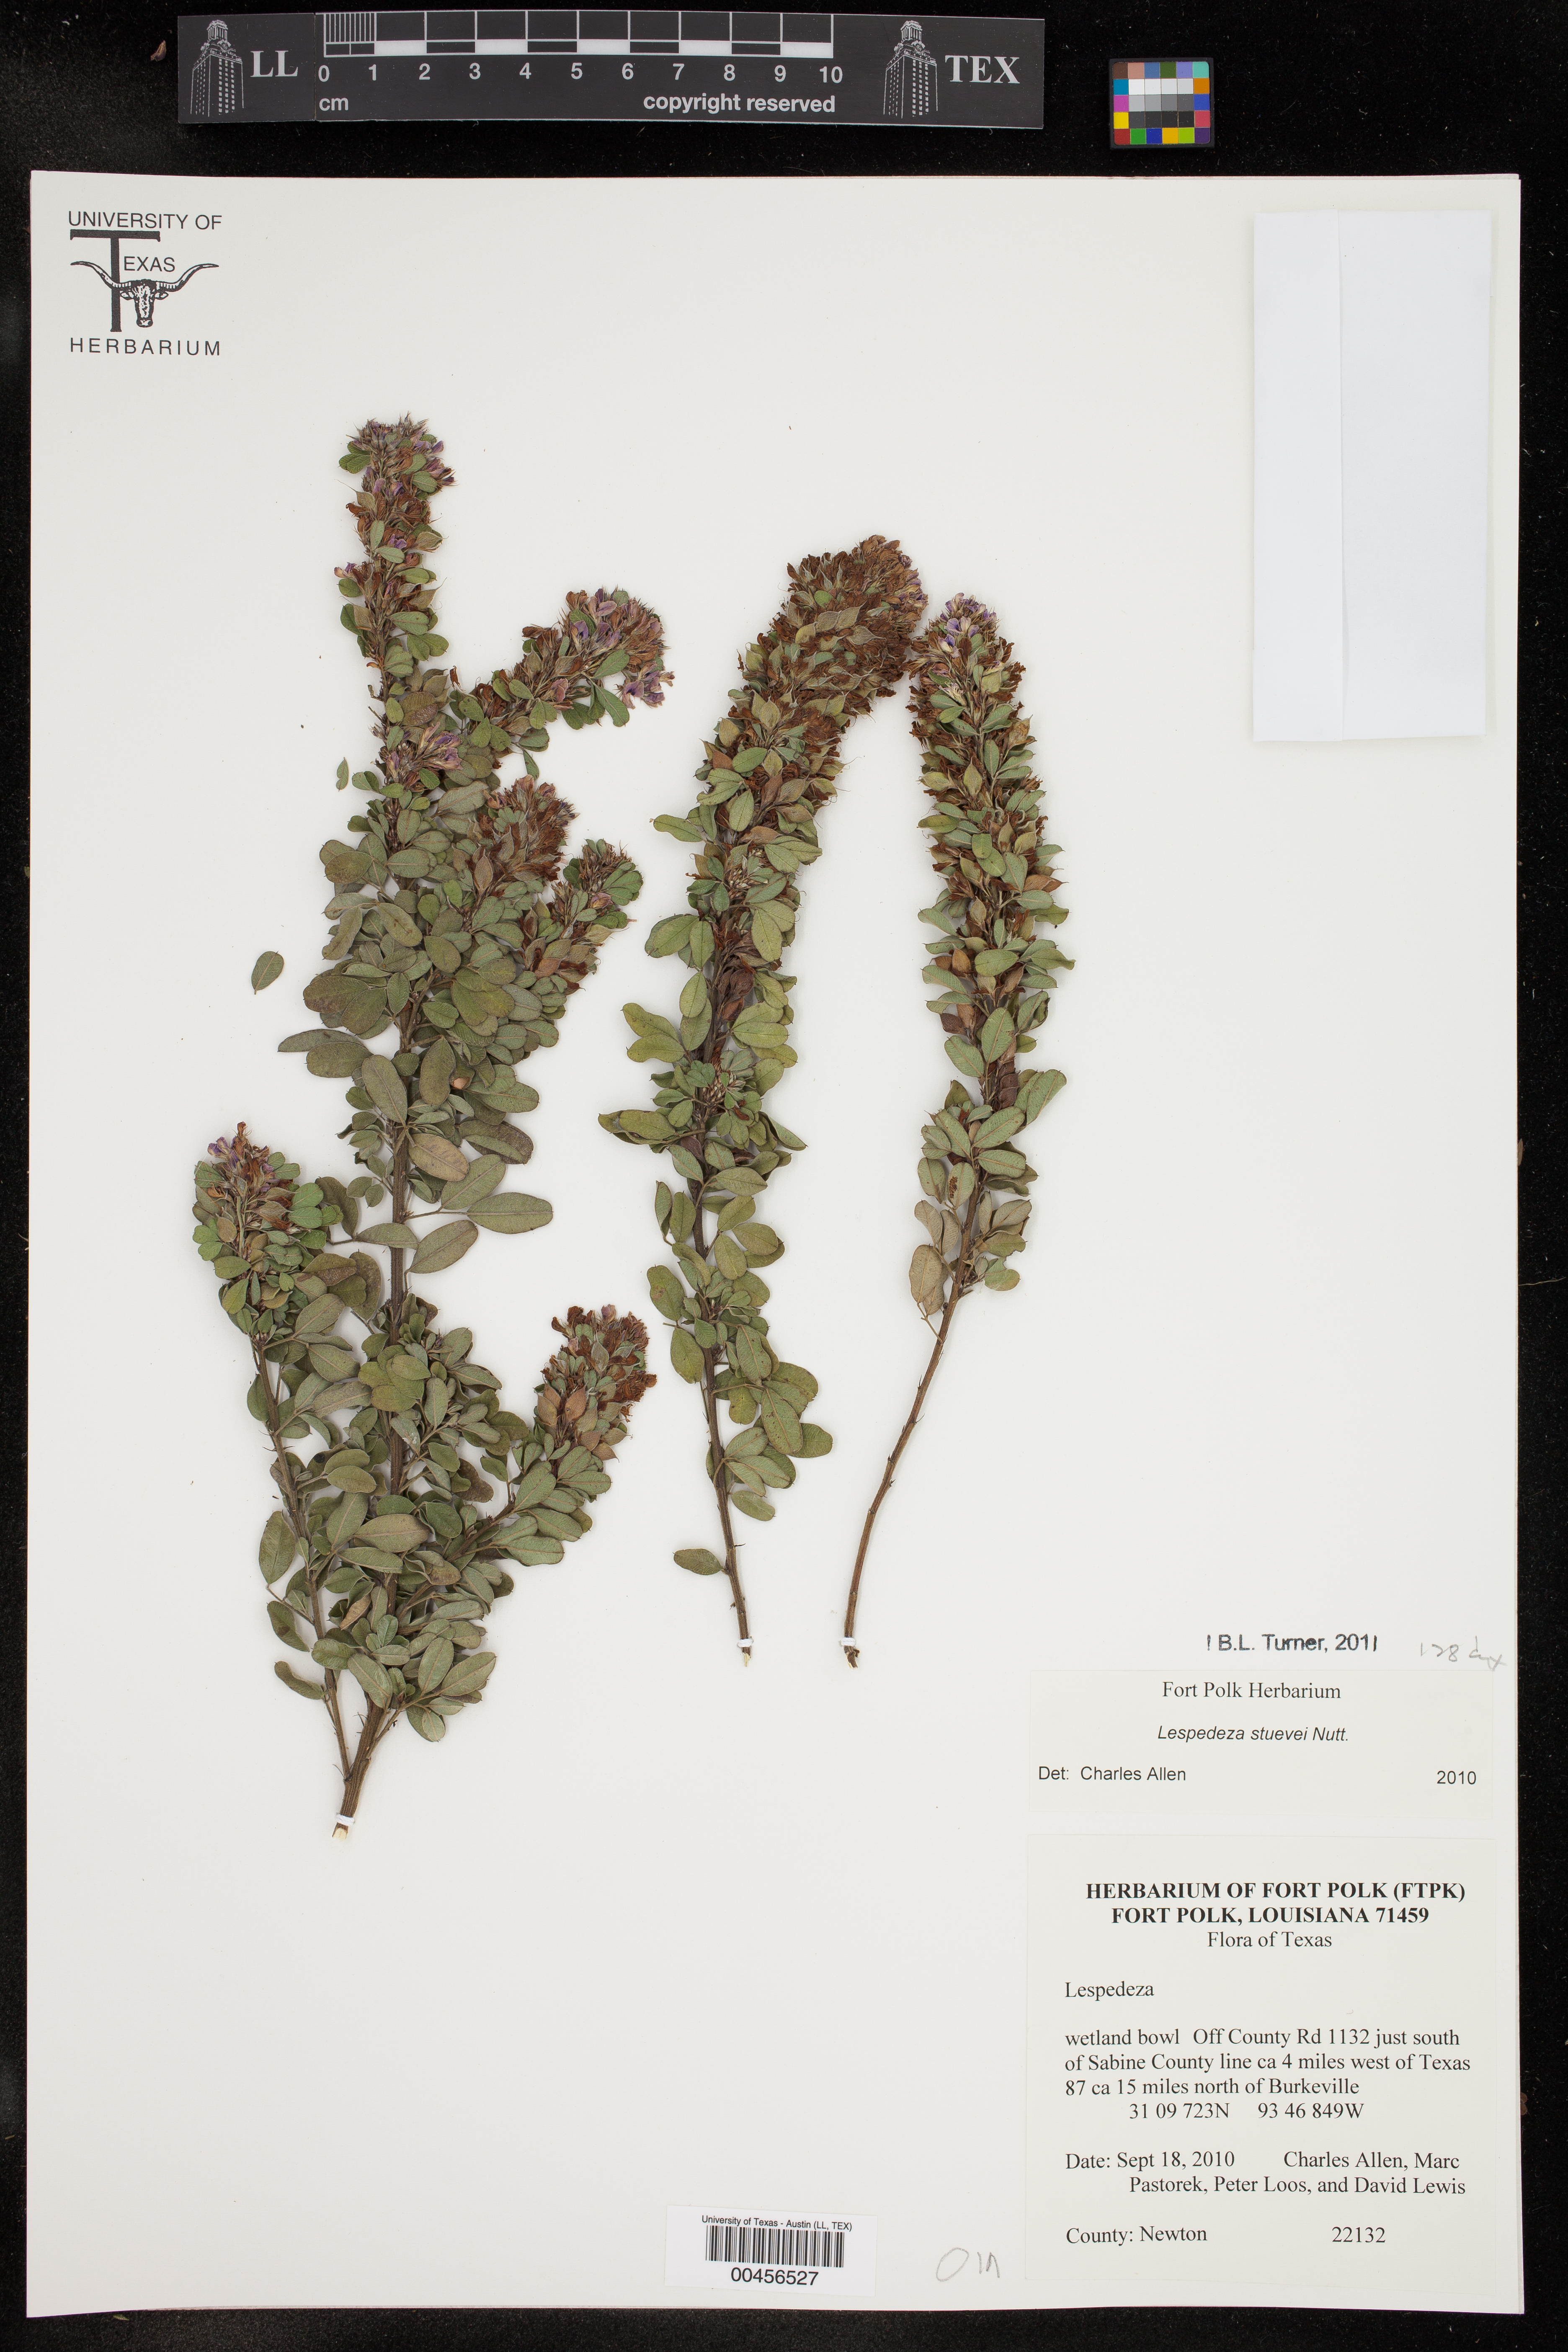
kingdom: Plantae
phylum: Tracheophyta
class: Magnoliopsida
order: Fabales
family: Fabaceae
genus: Lespedeza
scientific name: Lespedeza stuevei
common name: Tall bush-clover
